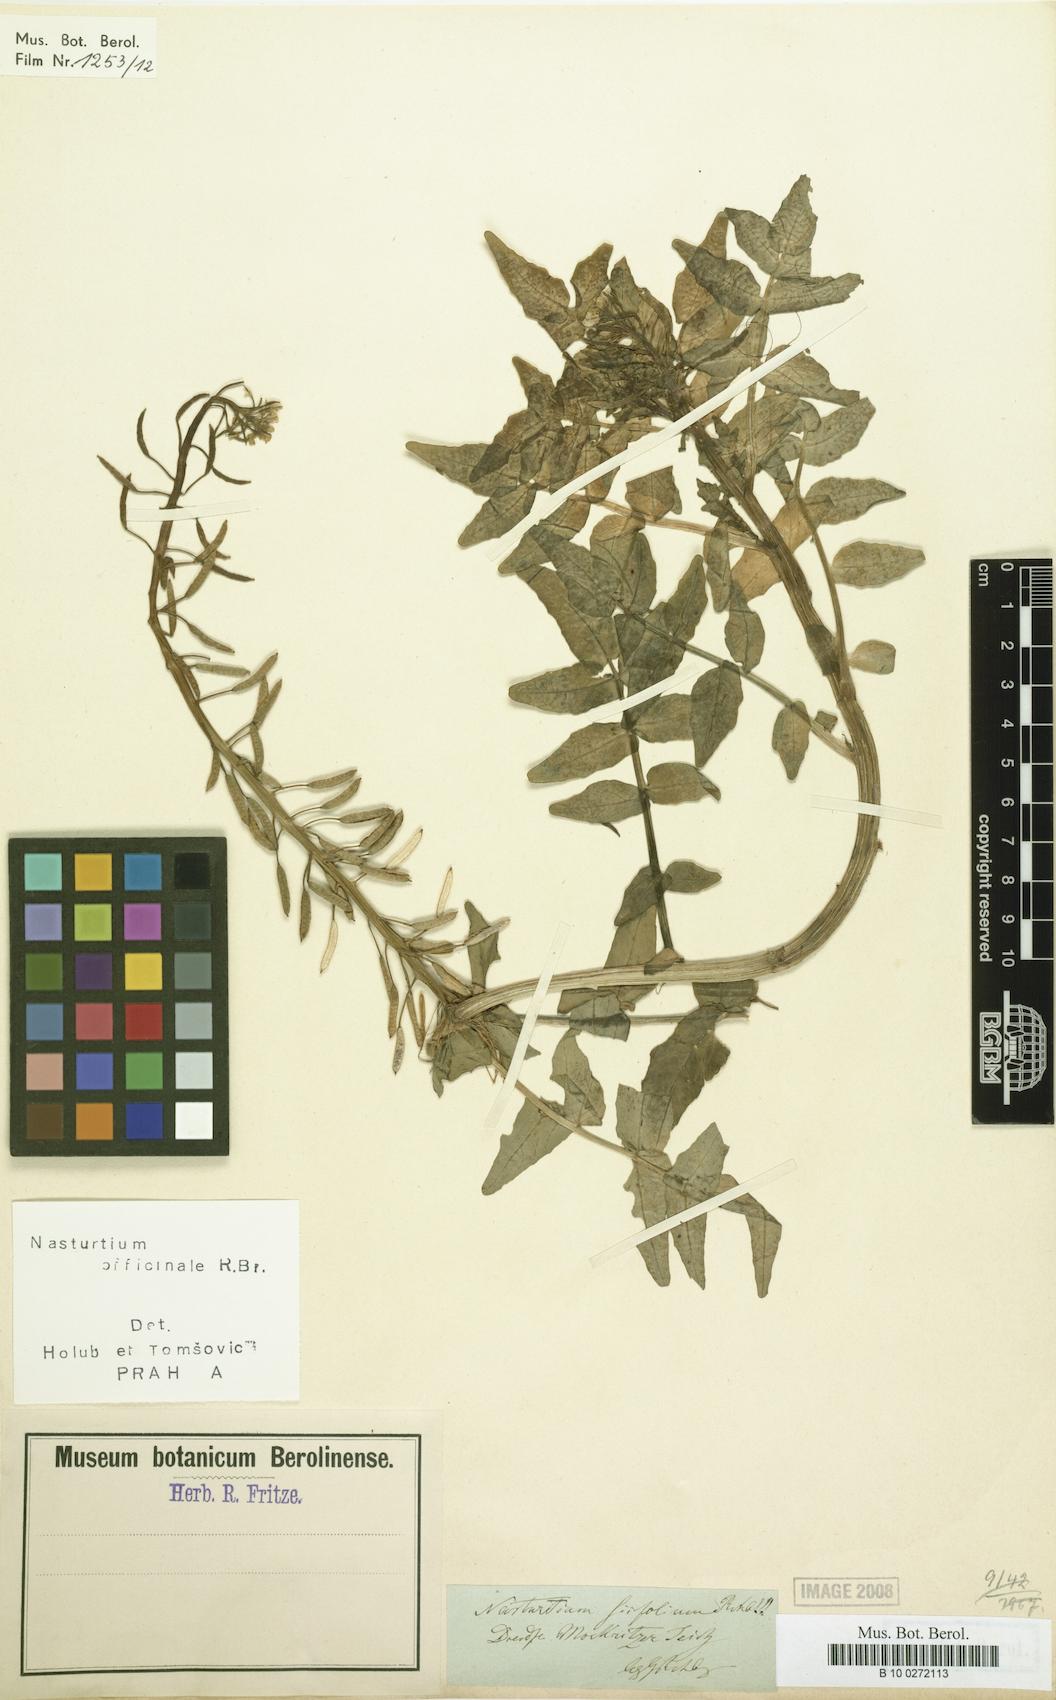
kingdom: Plantae
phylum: Tracheophyta
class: Magnoliopsida
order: Brassicales
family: Brassicaceae
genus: Nasturtium
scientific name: Nasturtium officinale
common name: Watercress
